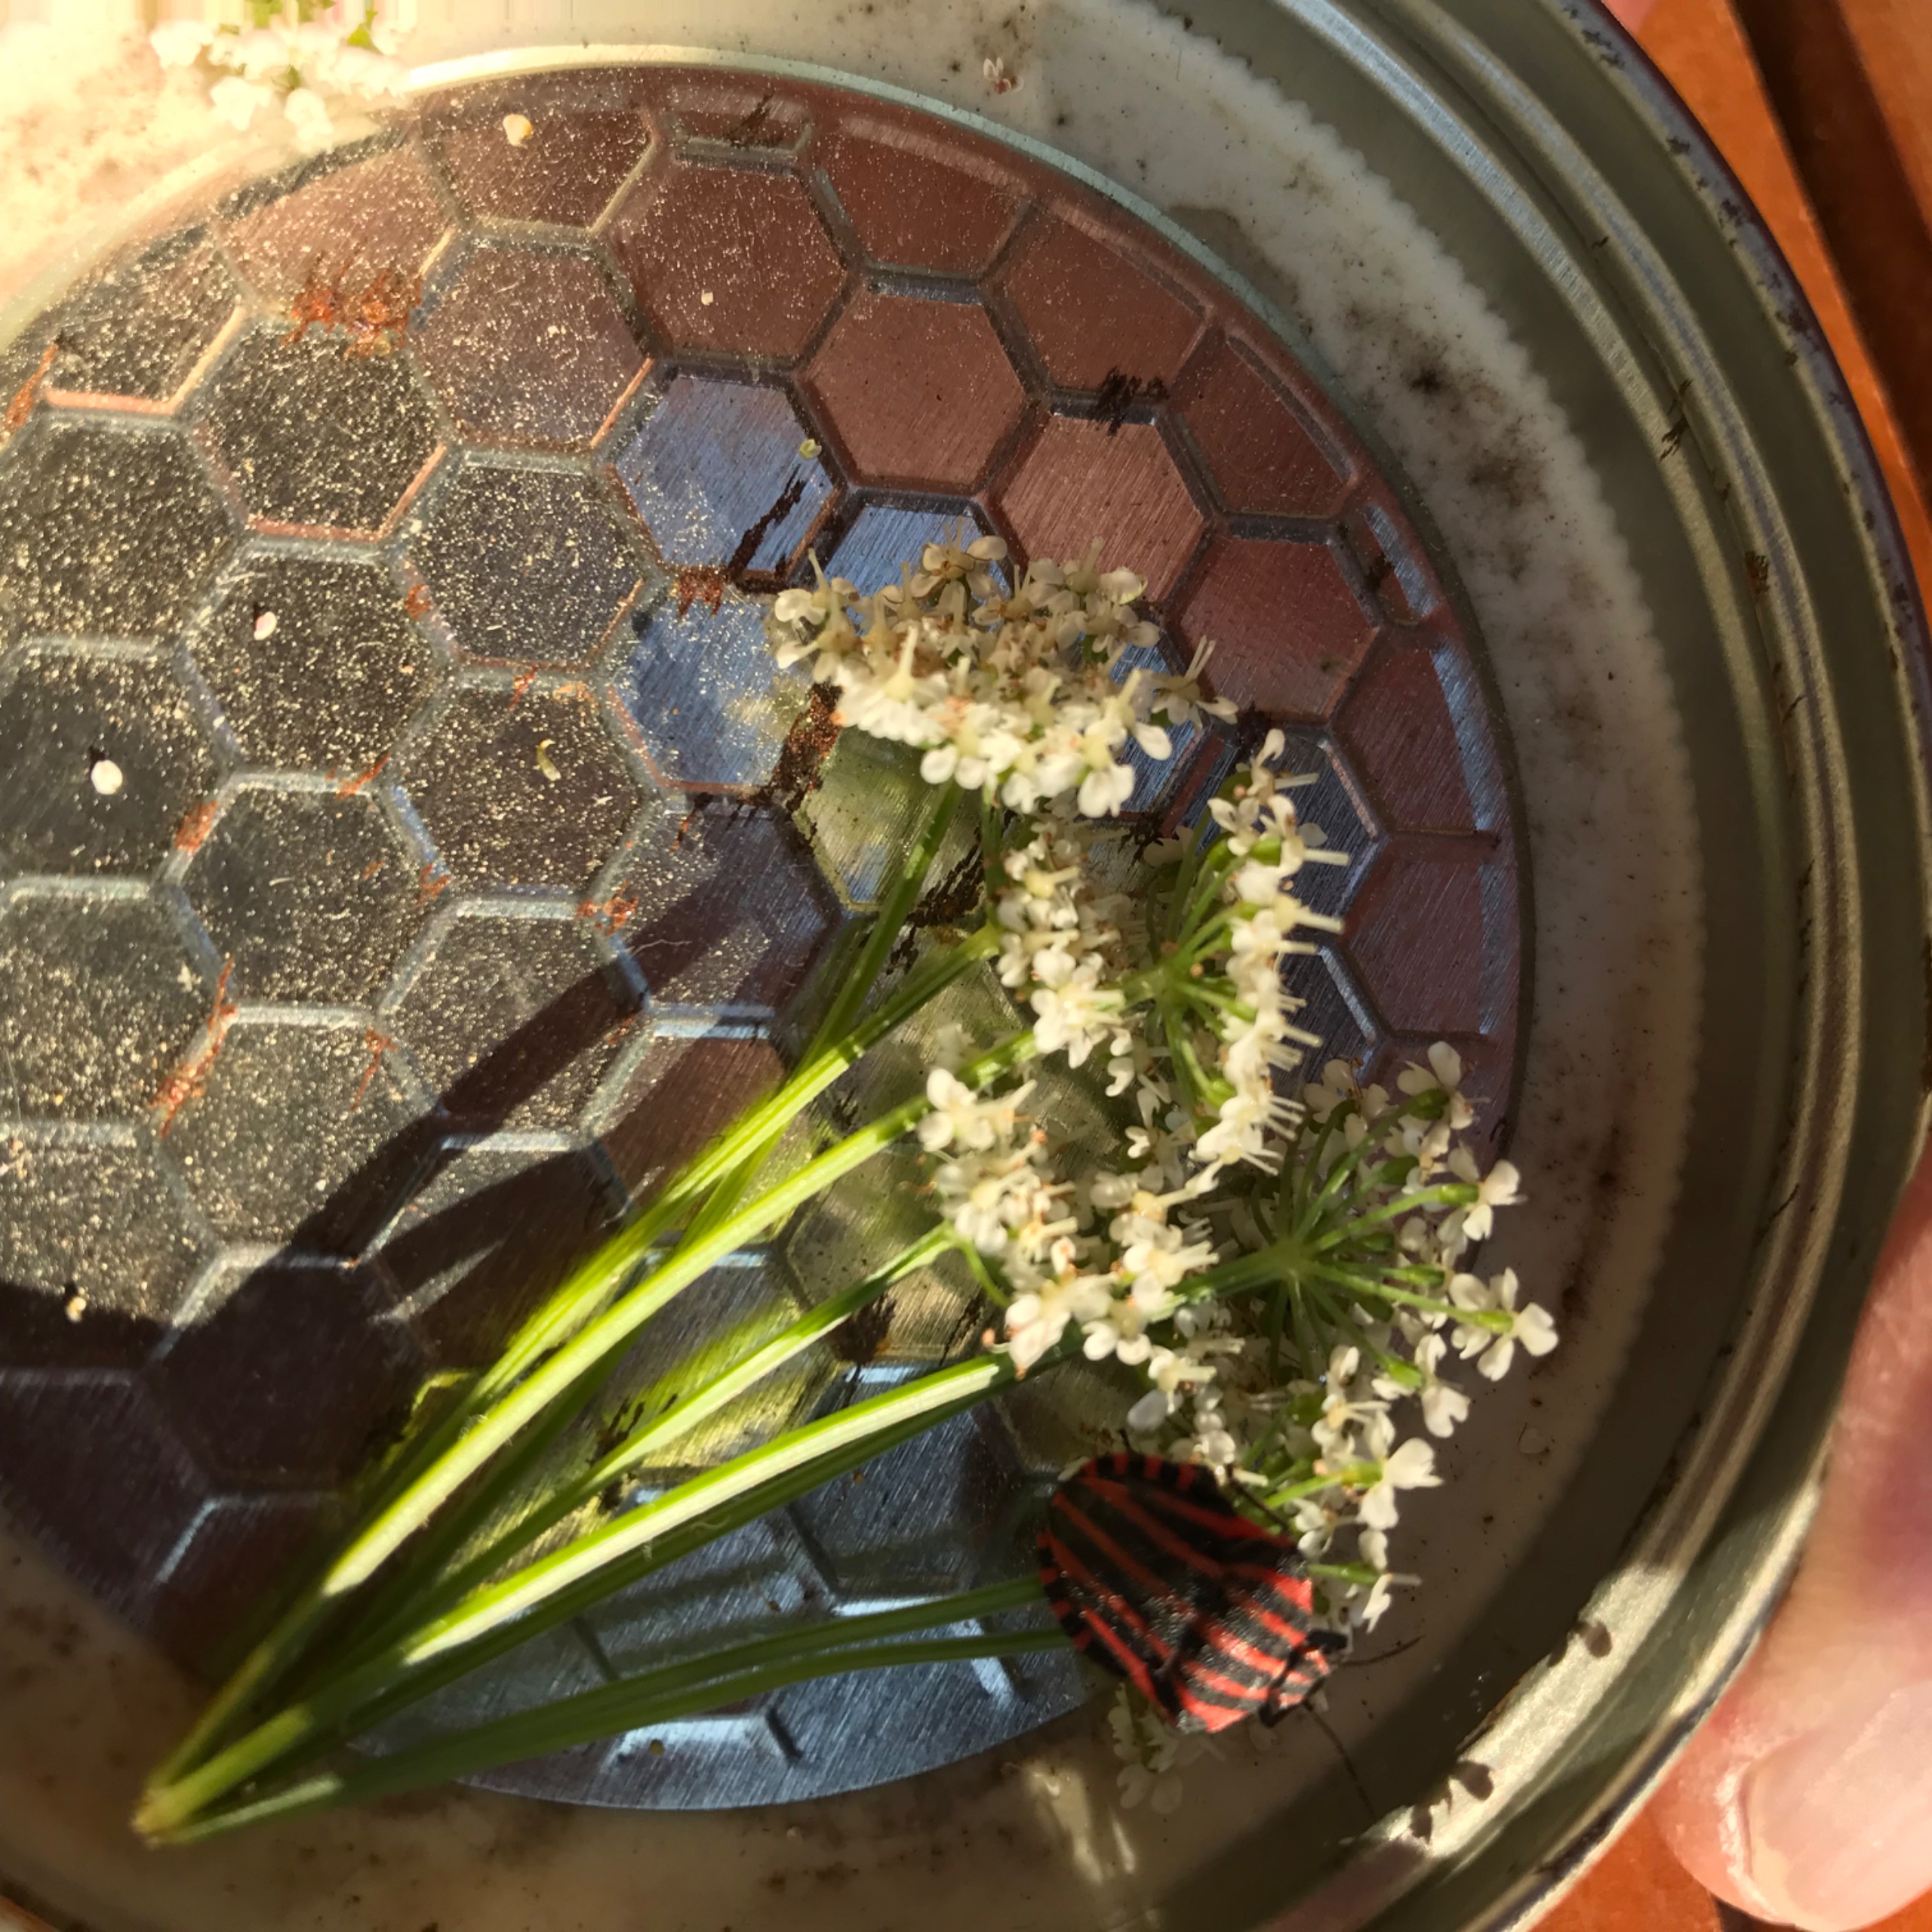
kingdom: Animalia
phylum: Arthropoda
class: Insecta
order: Hemiptera
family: Pentatomidae
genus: Graphosoma
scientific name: Graphosoma italicum
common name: Stribetæge
